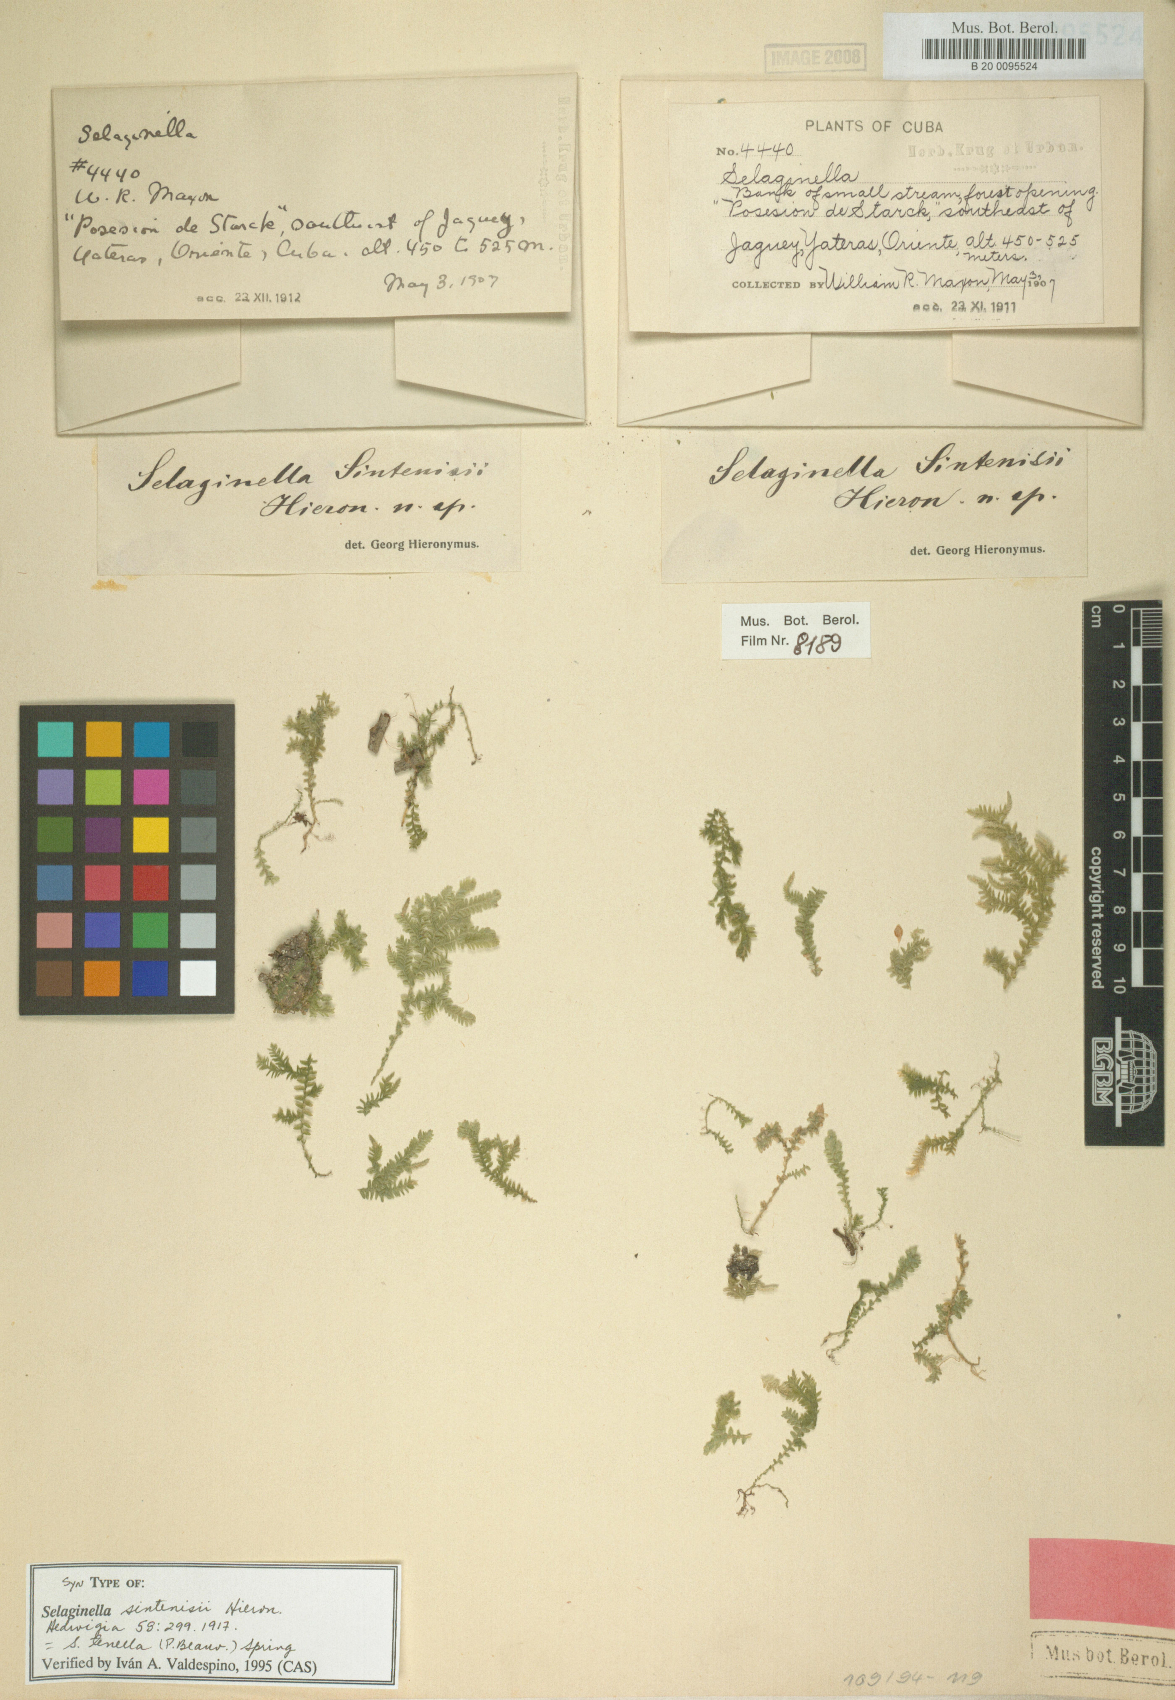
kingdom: Plantae
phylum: Tracheophyta
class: Lycopodiopsida
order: Selaginellales
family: Selaginellaceae
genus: Selaginella
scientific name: Selaginella tenella
